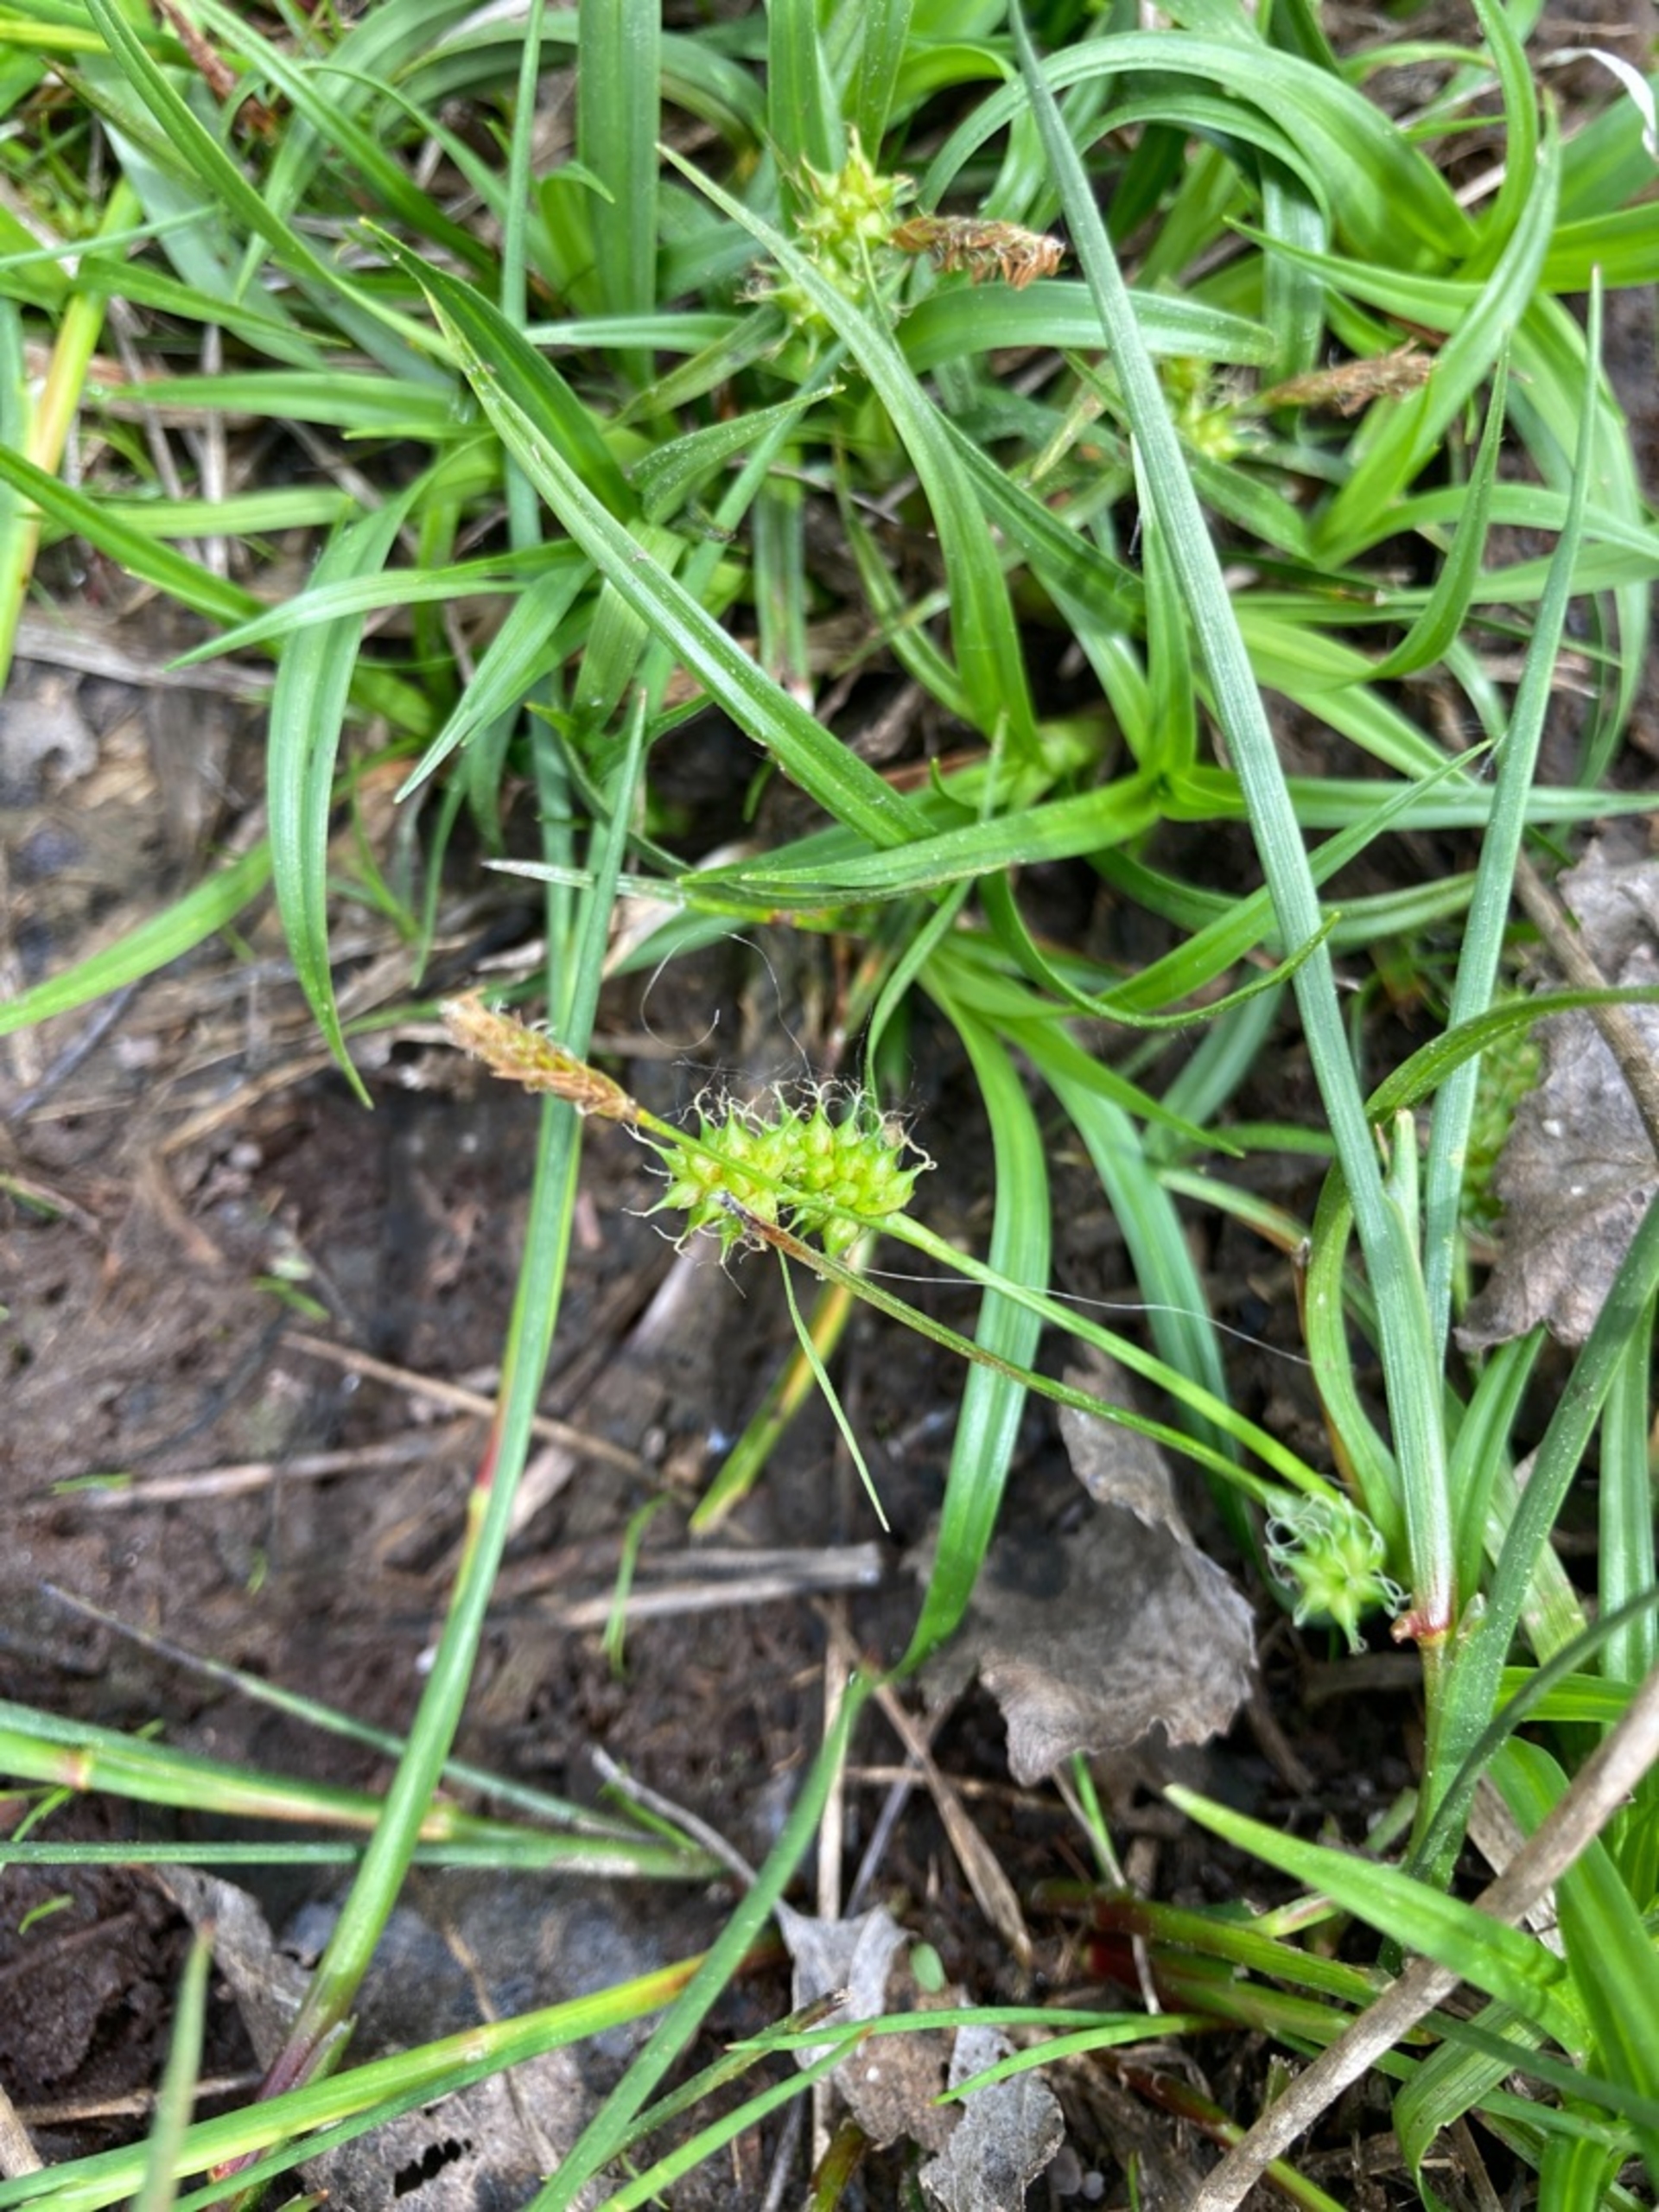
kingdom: Plantae
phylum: Tracheophyta
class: Liliopsida
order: Poales
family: Cyperaceae
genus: Carex
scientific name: Carex demissa
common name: Grøn star
